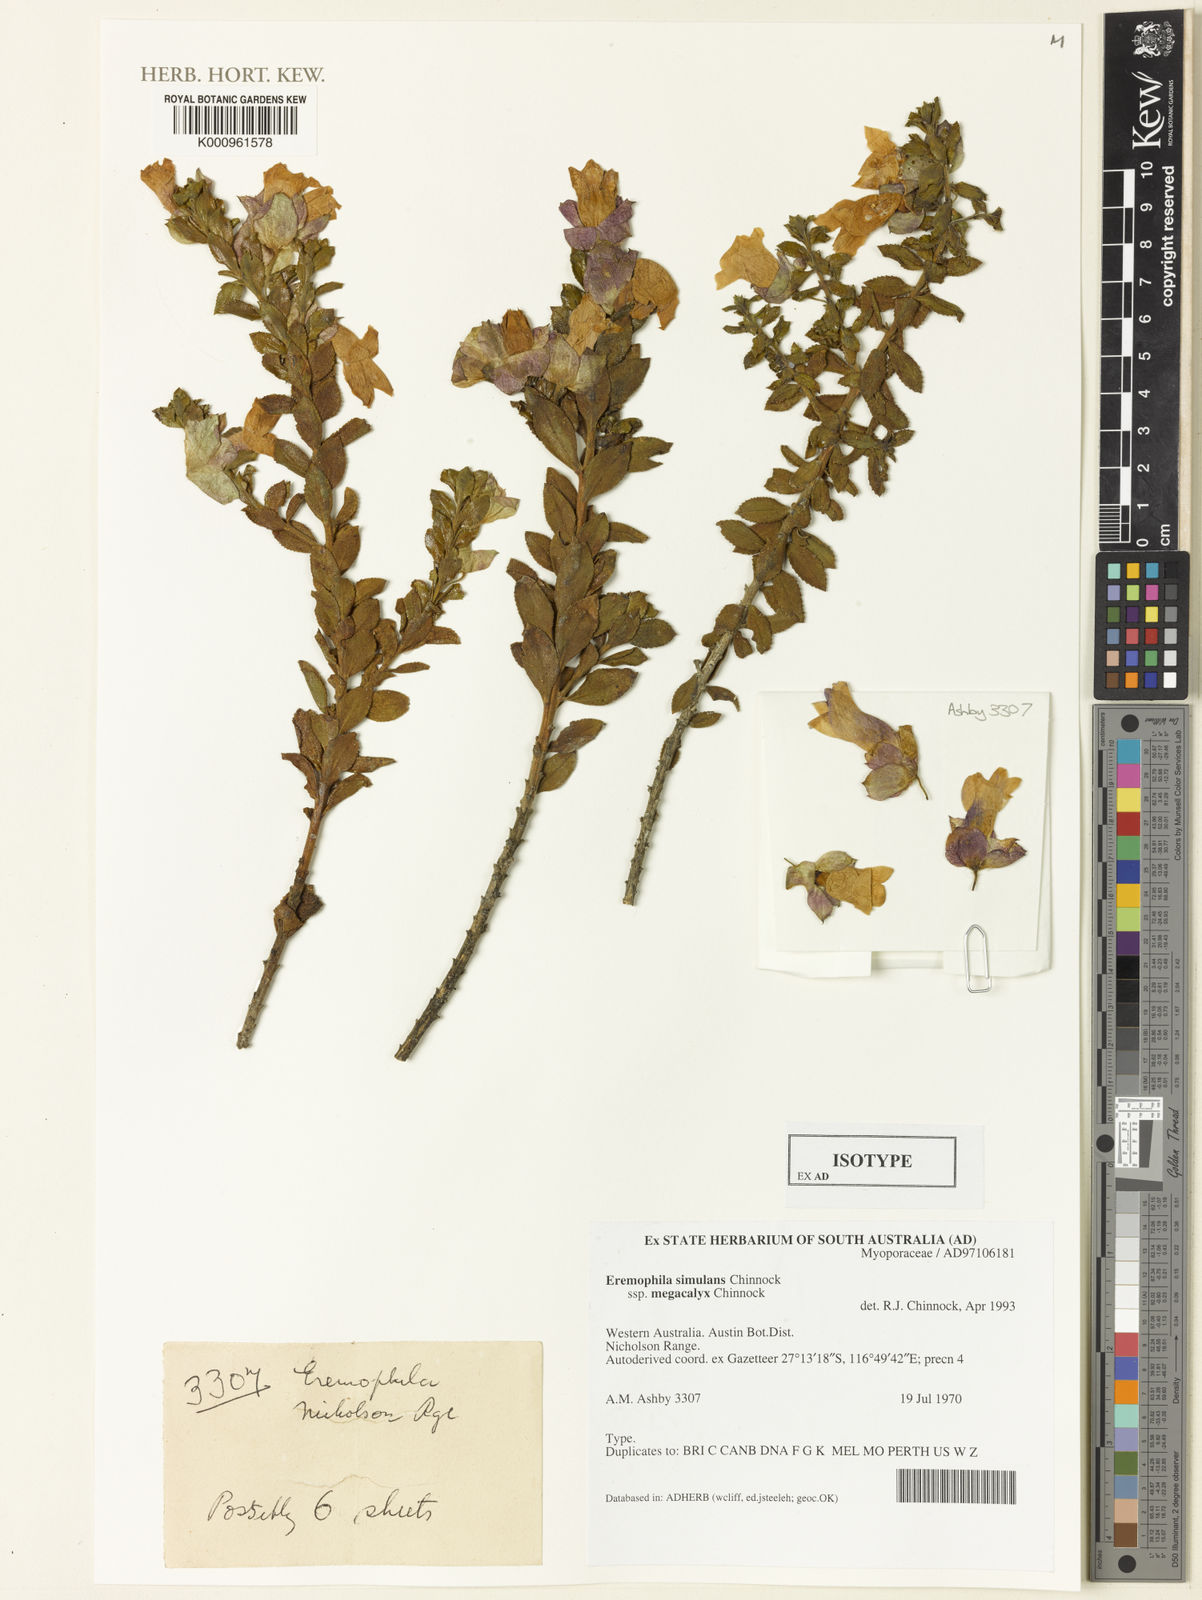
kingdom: Plantae
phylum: Tracheophyta
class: Magnoliopsida
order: Lamiales
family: Scrophulariaceae
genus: Eremophila
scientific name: Eremophila simulans
